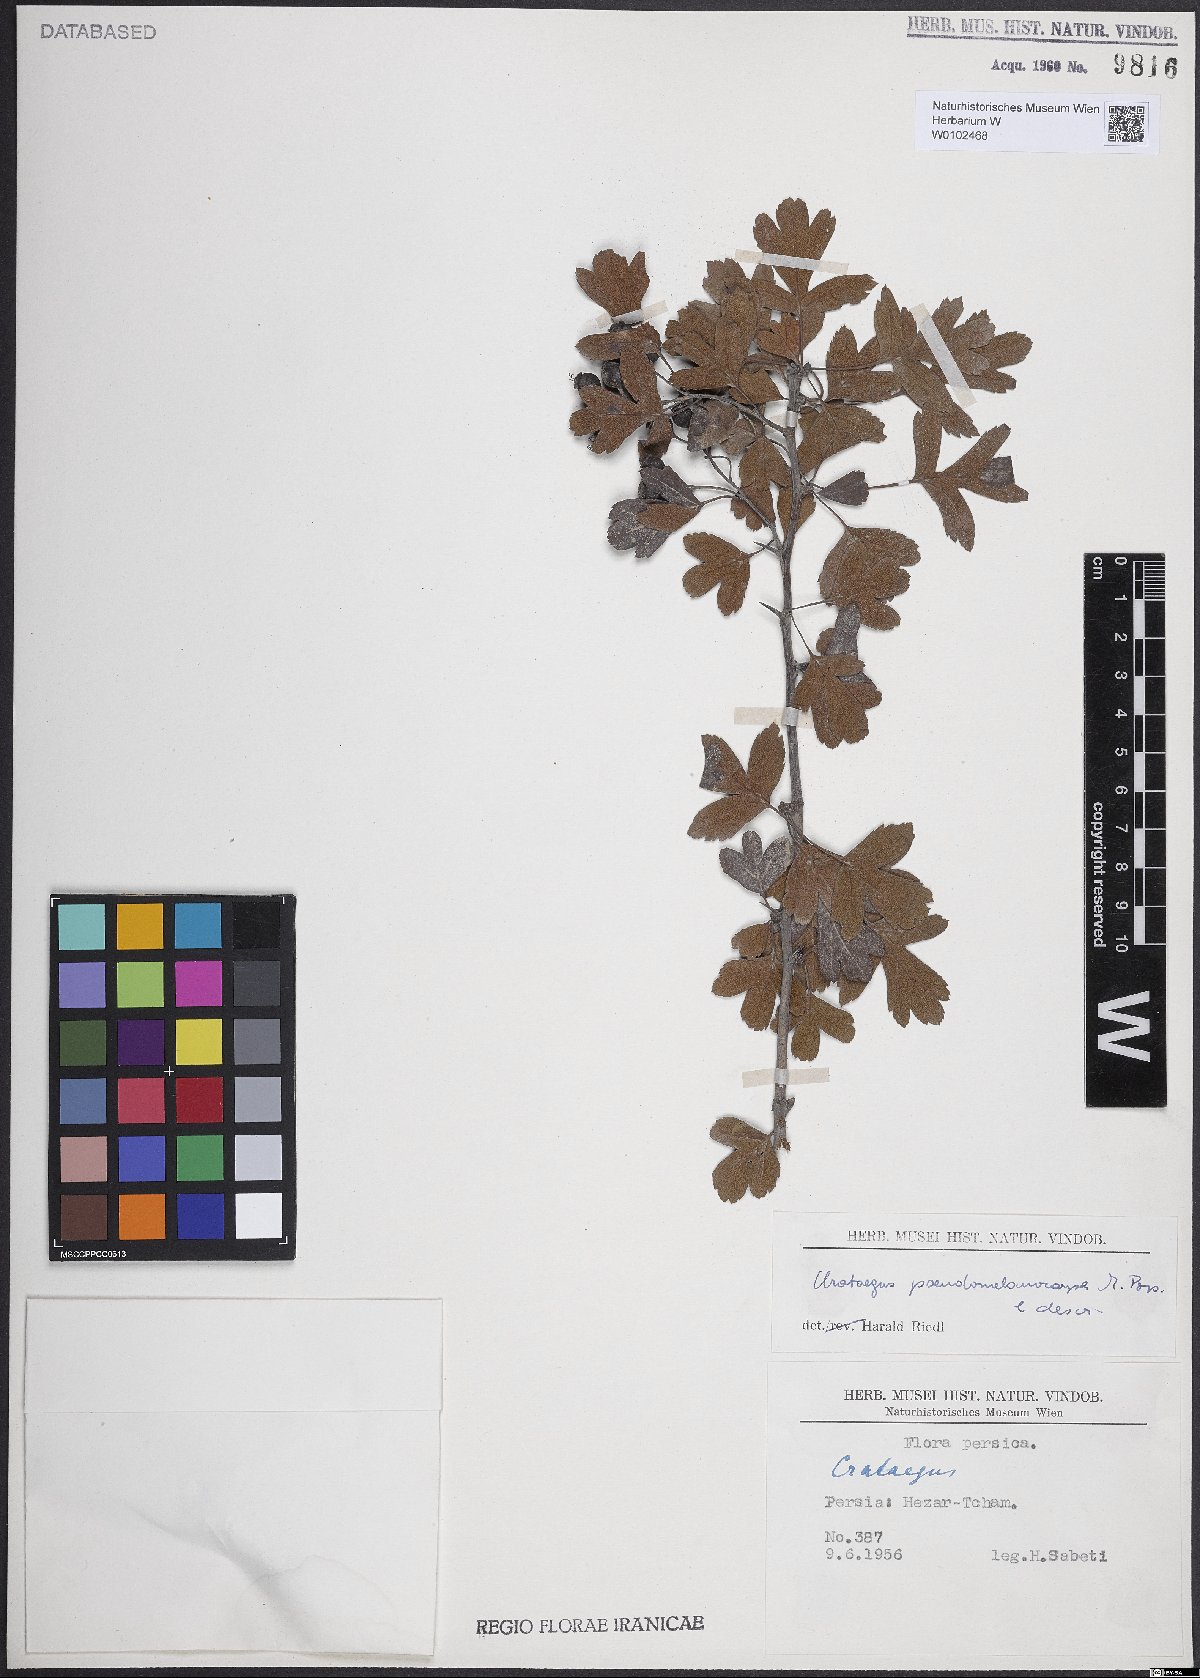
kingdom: Plantae
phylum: Tracheophyta
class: Magnoliopsida
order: Rosales
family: Rosaceae
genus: Crataegus
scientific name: Crataegus pentagyna
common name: Small-flowered black hawthorn
